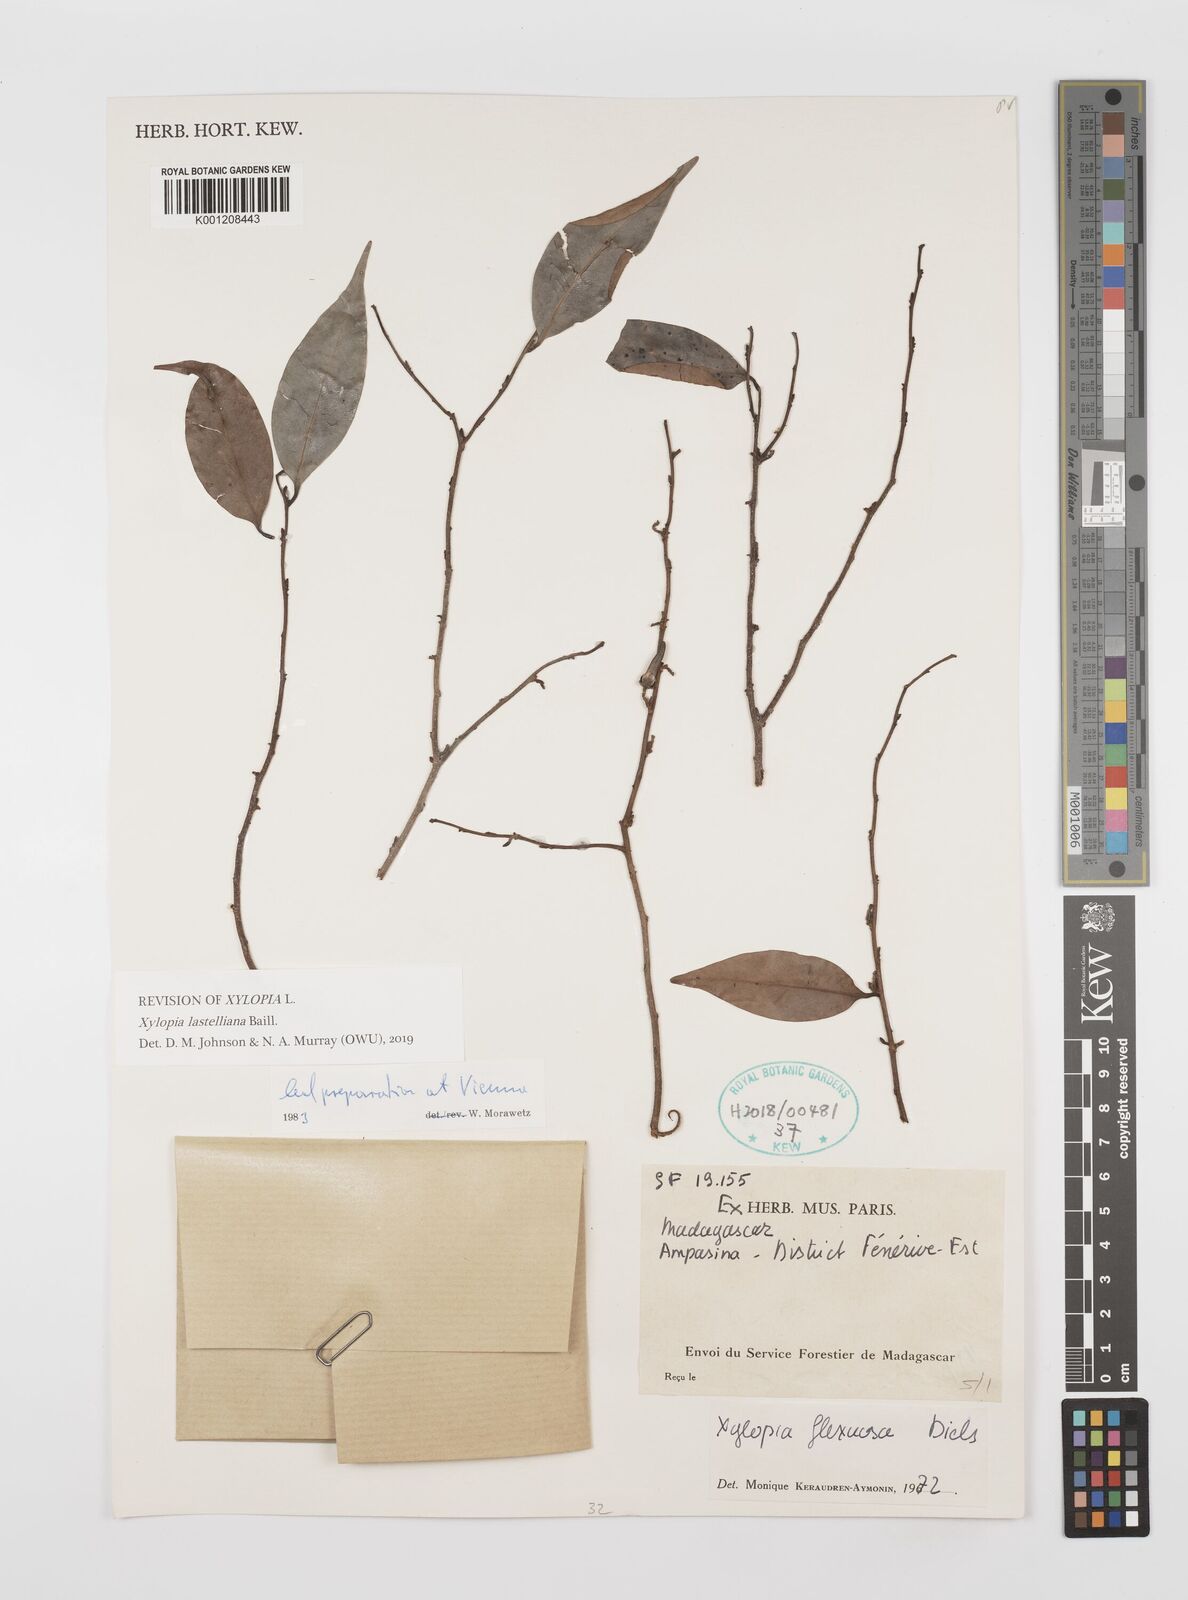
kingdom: Plantae
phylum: Tracheophyta
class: Magnoliopsida
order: Magnoliales
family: Annonaceae
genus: Xylopia
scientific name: Xylopia flexuosa
